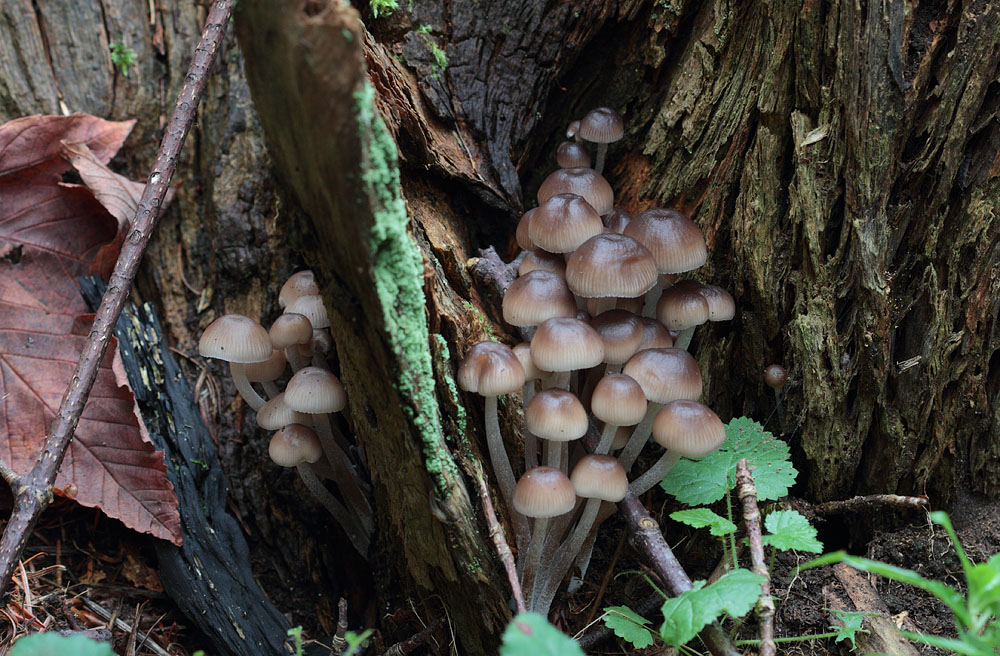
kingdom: Fungi
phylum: Basidiomycota
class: Agaricomycetes
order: Agaricales
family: Mycenaceae
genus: Mycena
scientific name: Mycena inclinata
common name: nikkende huesvamp
